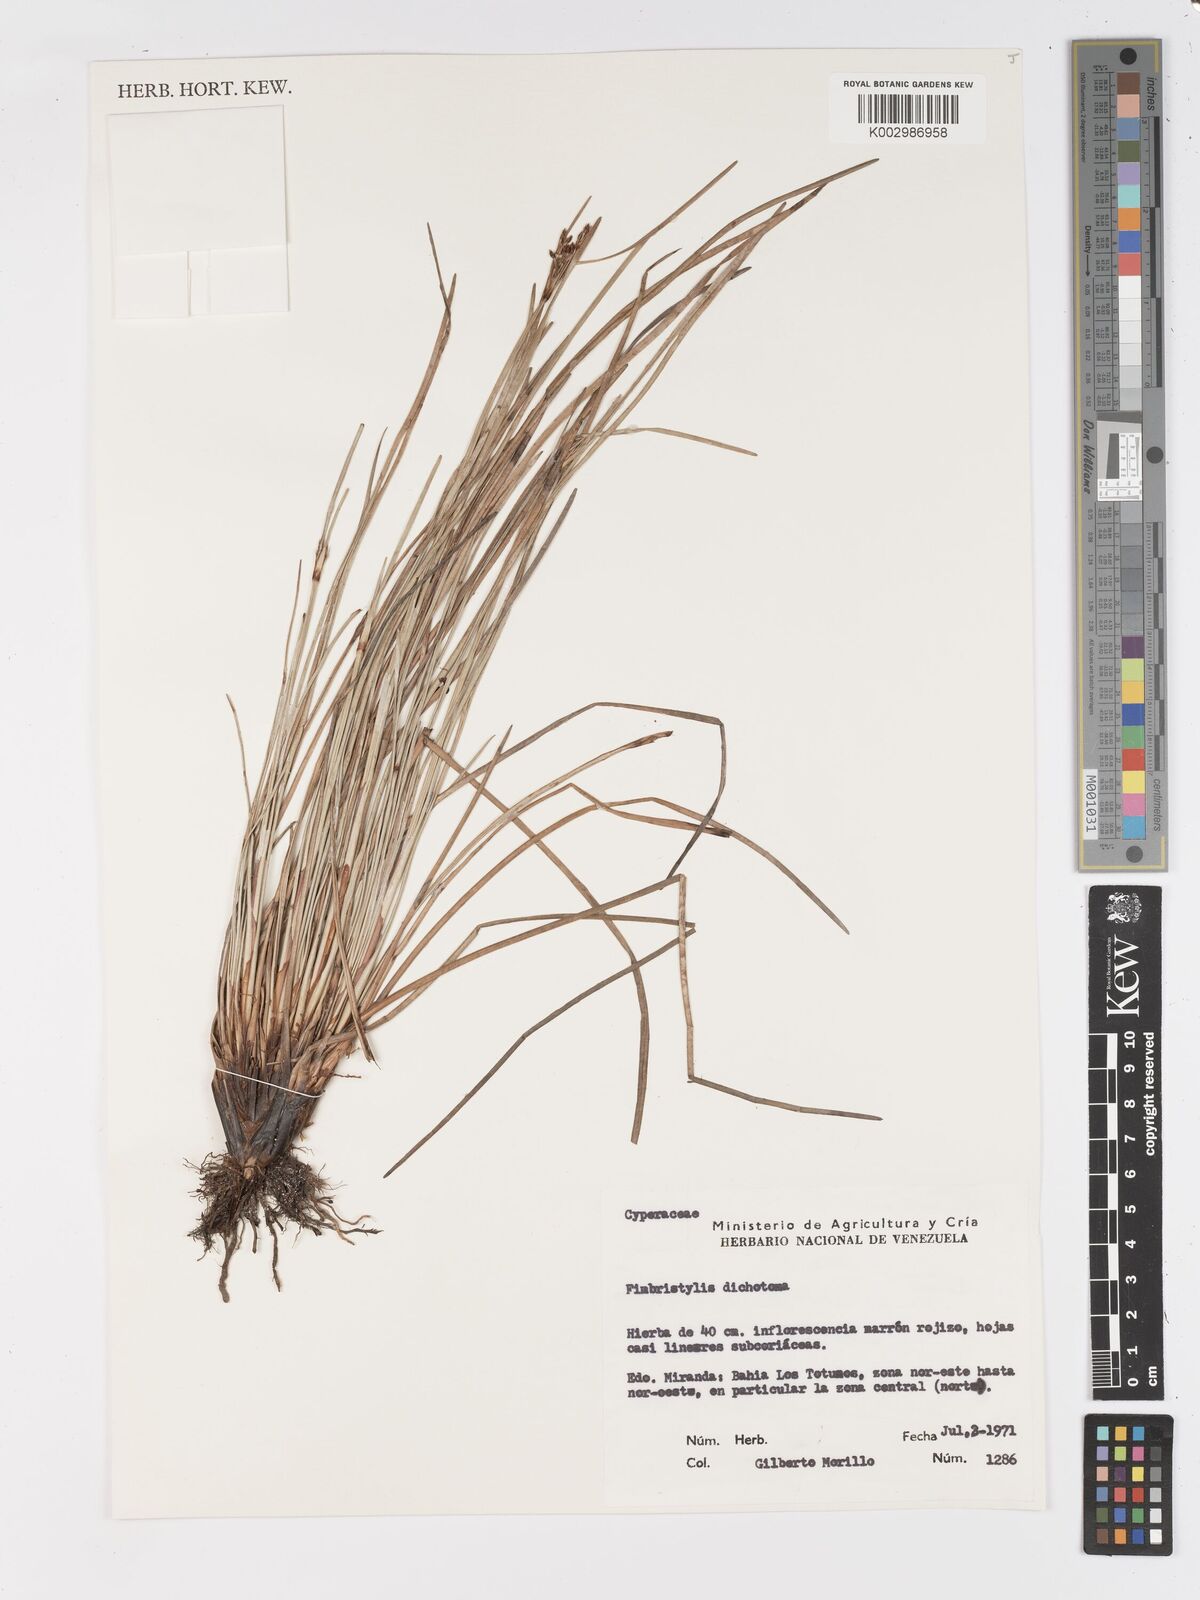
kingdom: Plantae
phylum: Tracheophyta
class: Liliopsida
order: Poales
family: Cyperaceae
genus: Fimbristylis
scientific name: Fimbristylis dichotoma
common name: Forked fimbry
